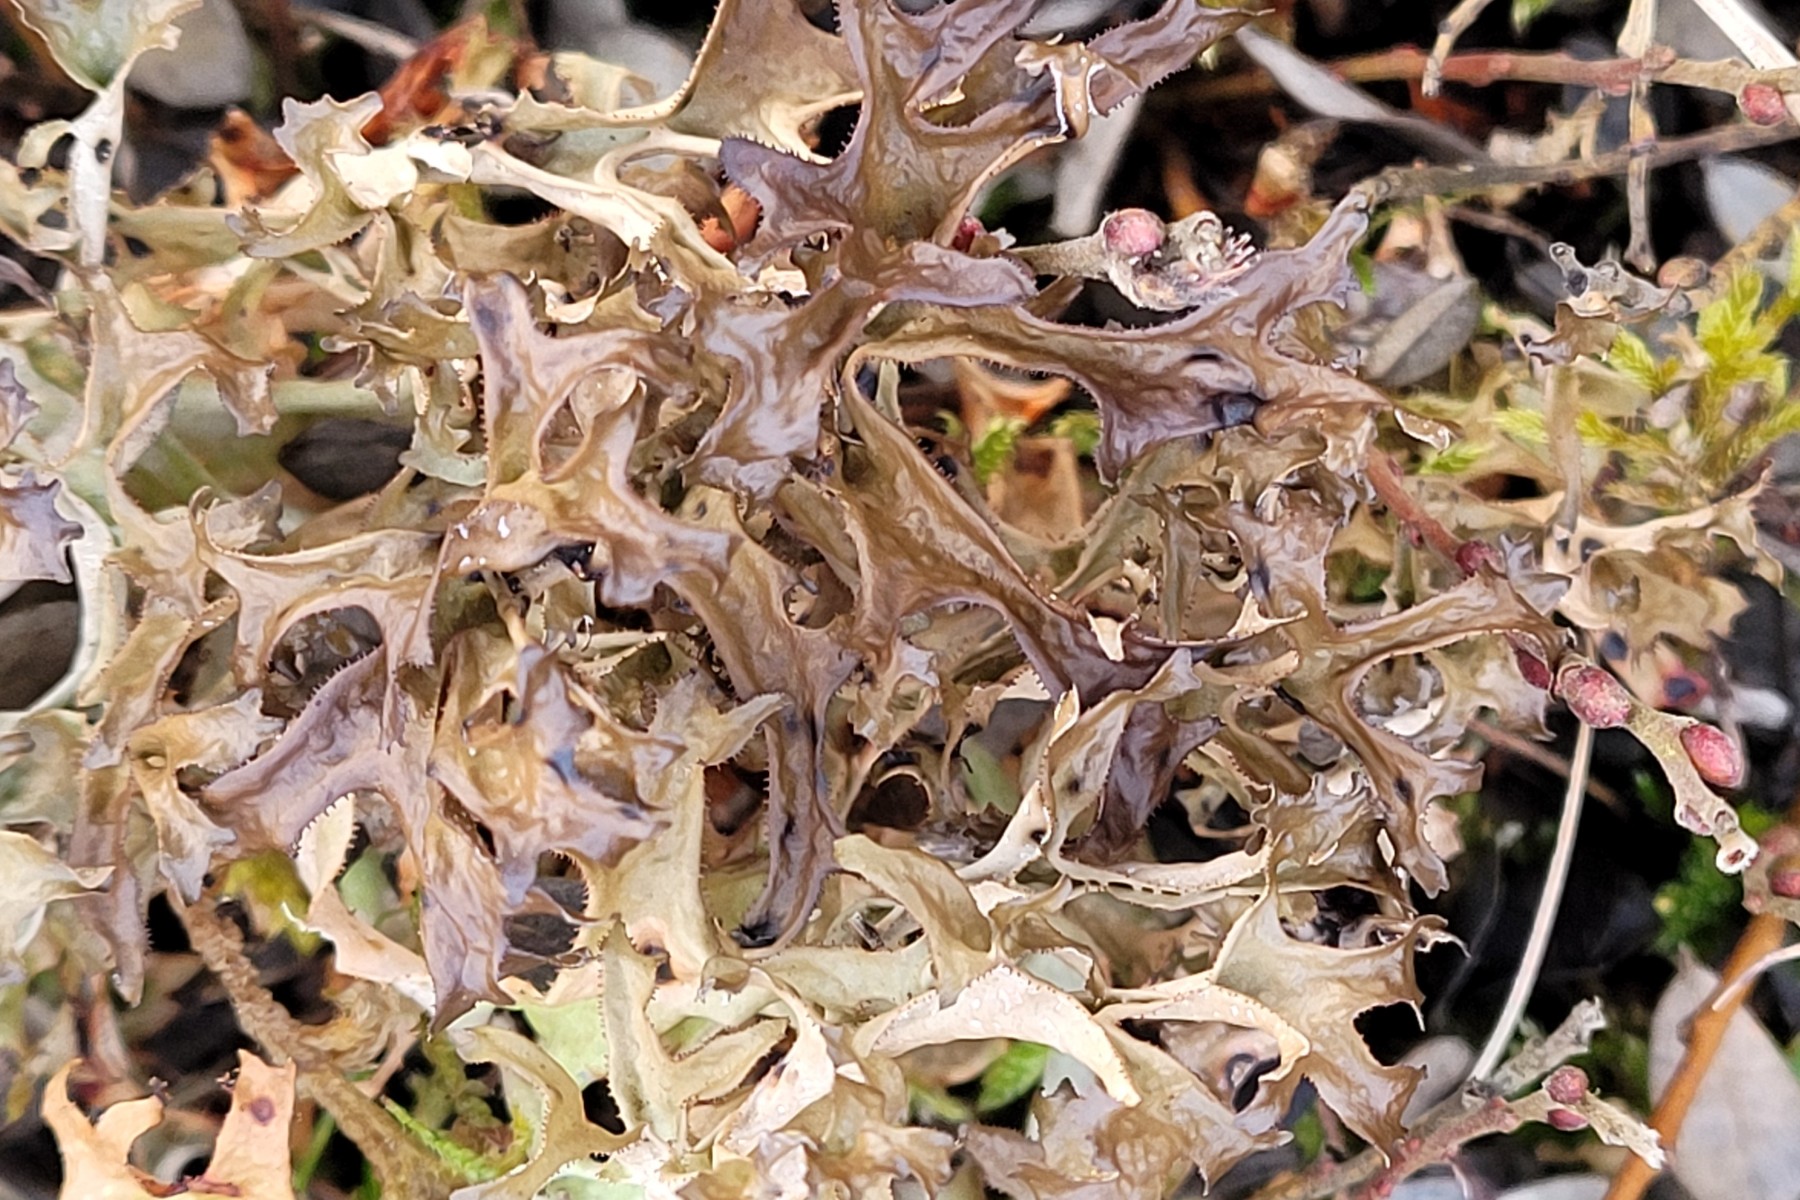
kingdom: Fungi
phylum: Ascomycota
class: Lecanoromycetes
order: Lecanorales
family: Parmeliaceae
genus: Cetraria
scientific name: Cetraria islandica
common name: islandsk kruslav
